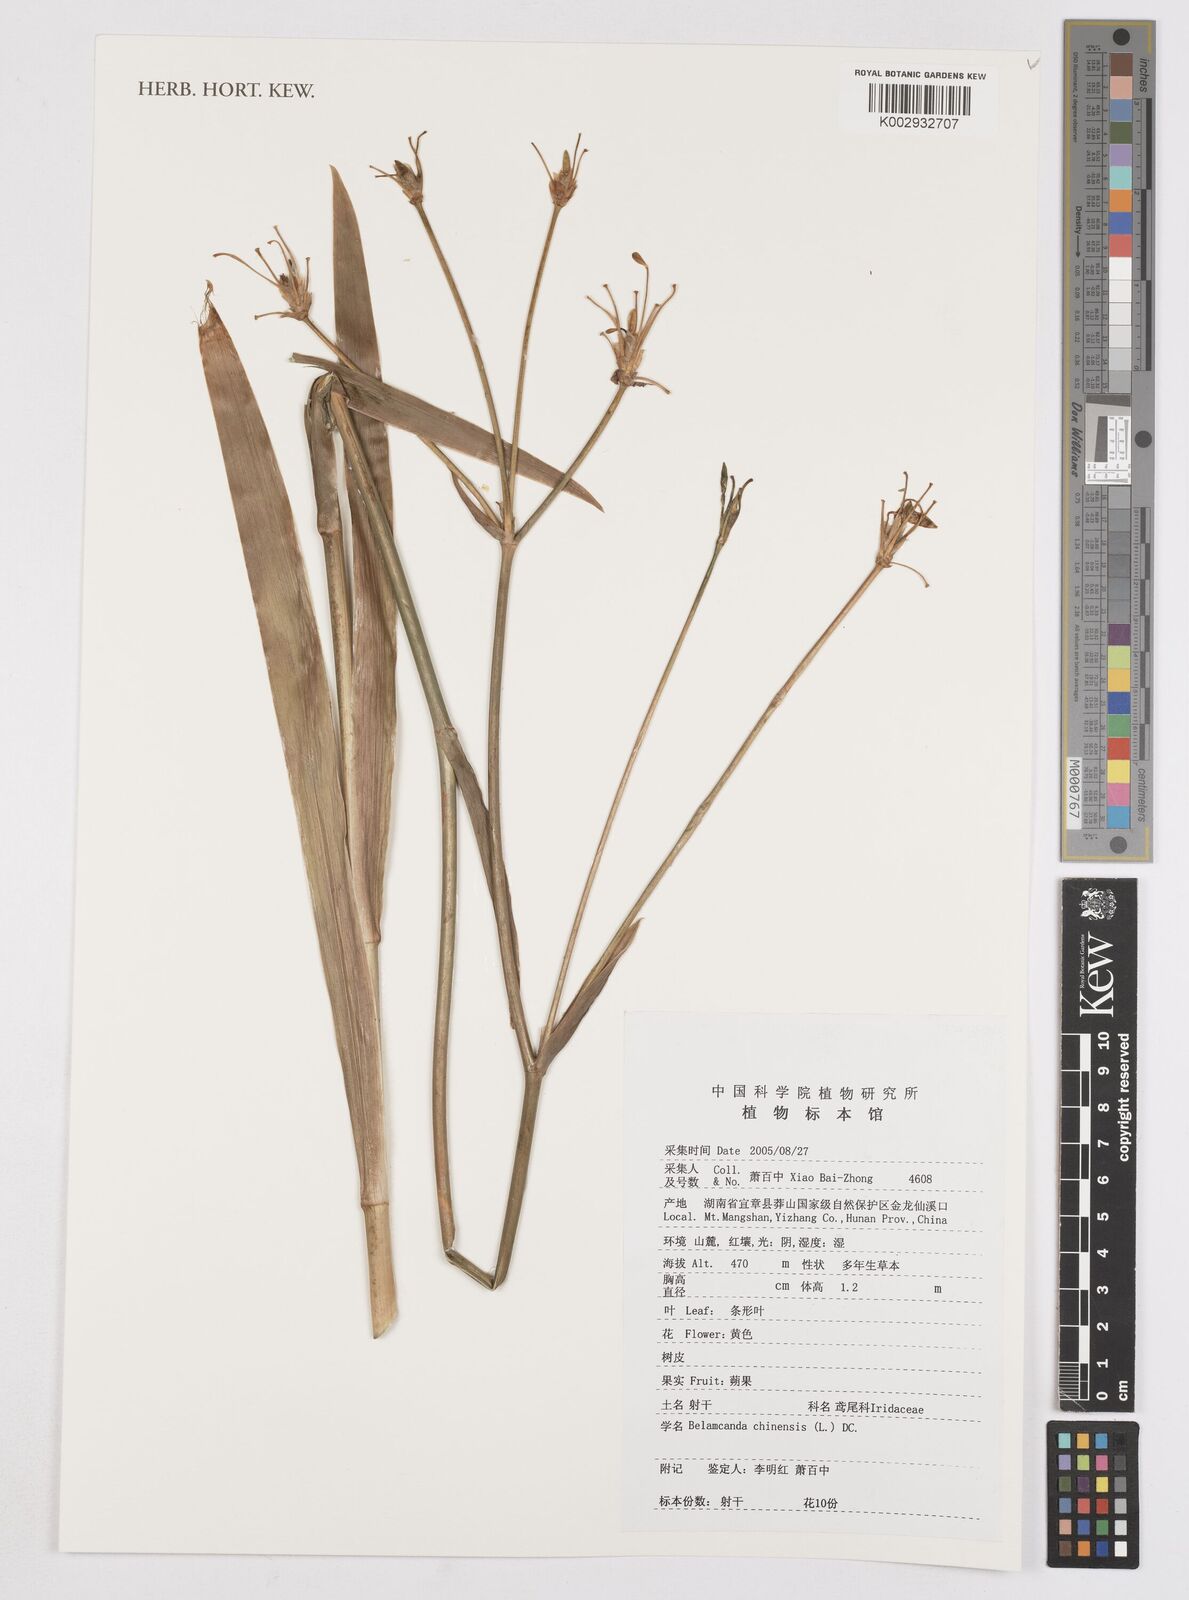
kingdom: Plantae
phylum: Tracheophyta
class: Liliopsida
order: Asparagales
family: Iridaceae
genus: Iris
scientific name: Iris
